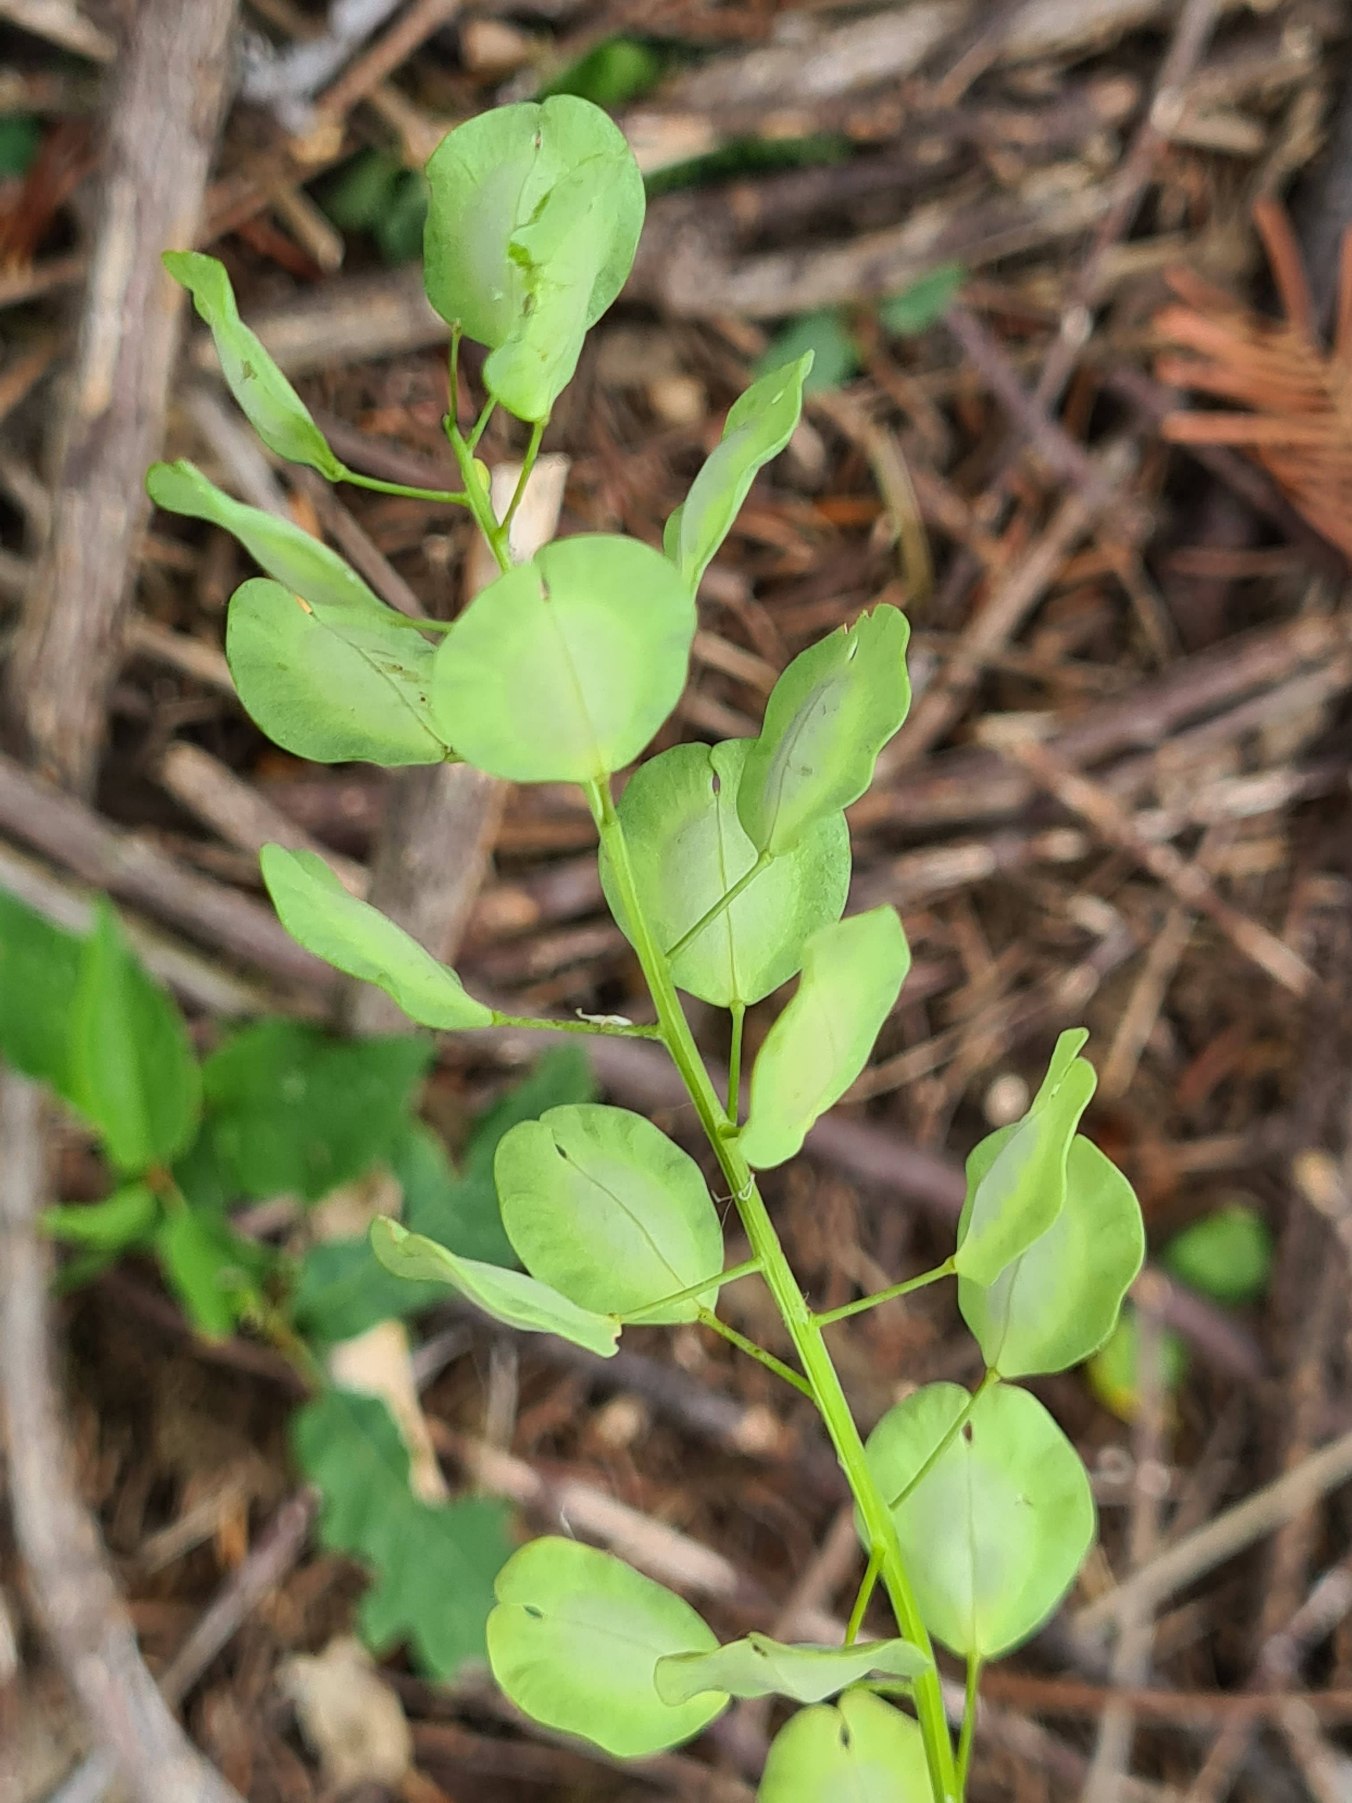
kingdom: Plantae
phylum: Tracheophyta
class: Magnoliopsida
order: Brassicales
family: Brassicaceae
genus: Thlaspi
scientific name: Thlaspi arvense
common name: Almindelig pengeurt
